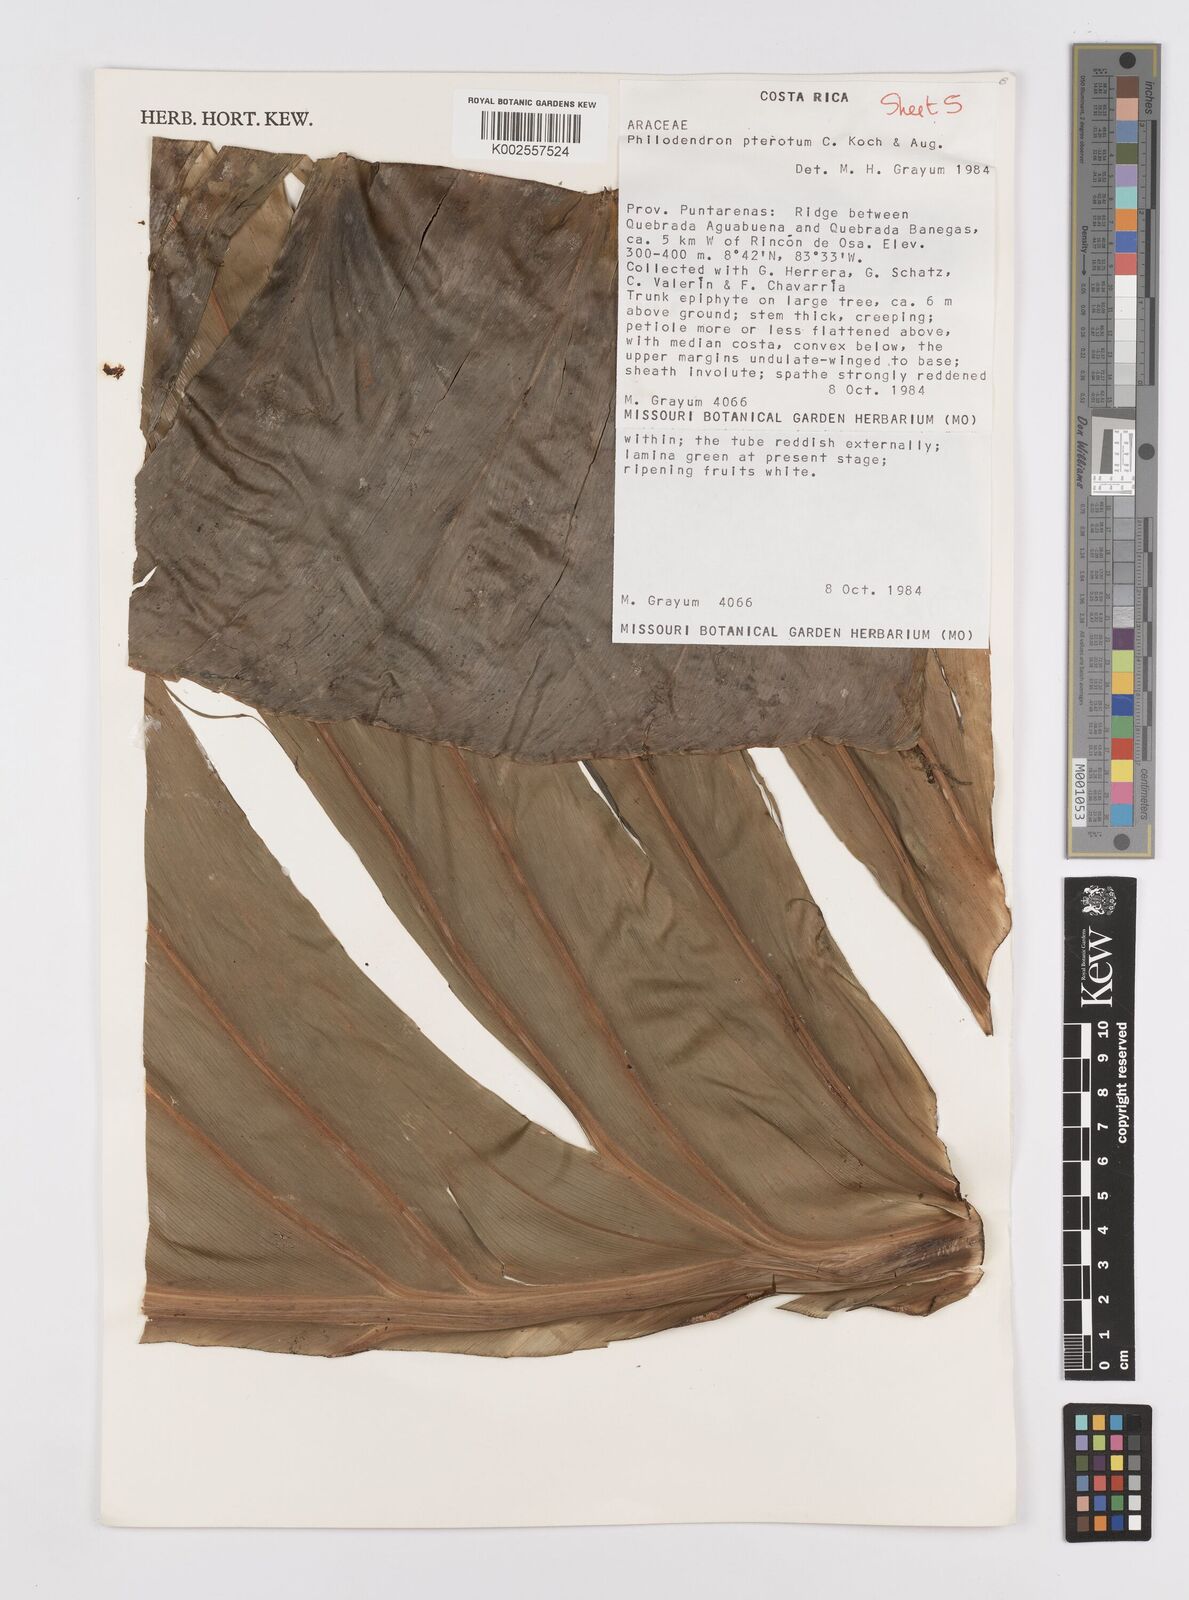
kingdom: Plantae
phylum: Tracheophyta
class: Liliopsida
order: Alismatales
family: Araceae
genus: Philodendron
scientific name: Philodendron pterotum
